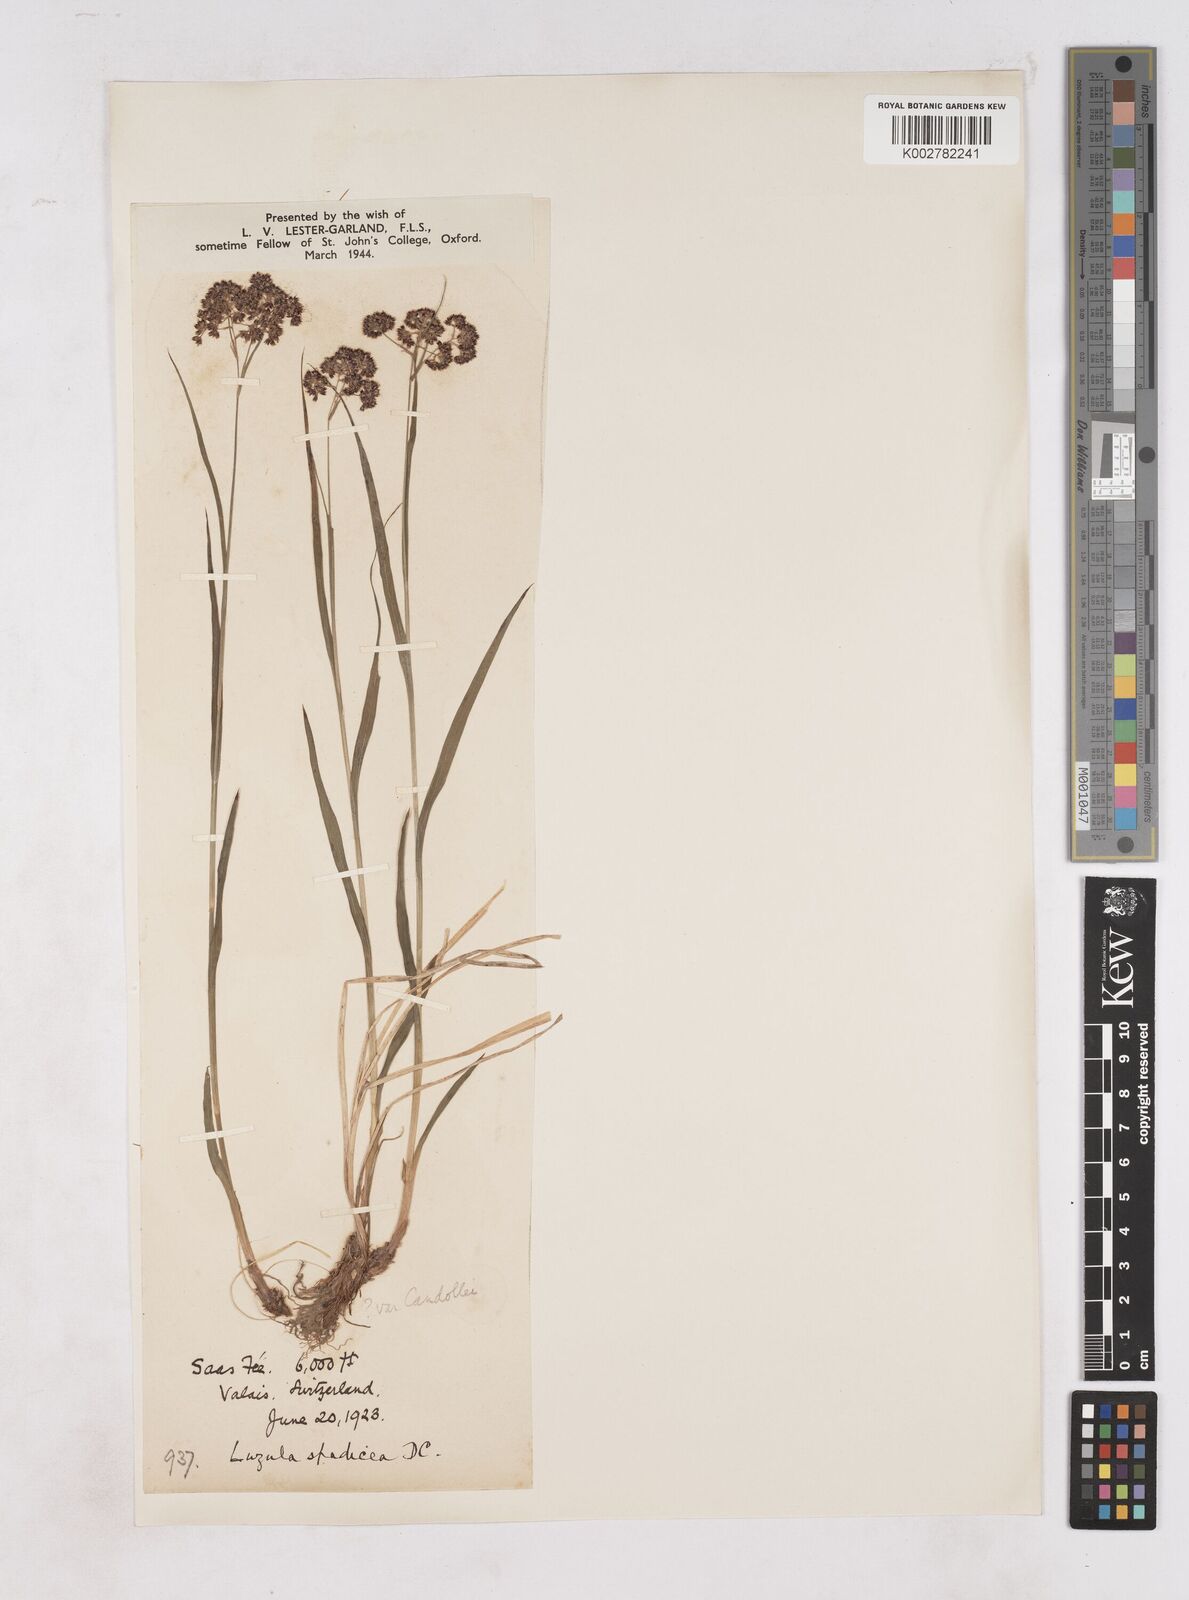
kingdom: Plantae
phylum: Tracheophyta
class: Liliopsida
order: Poales
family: Juncaceae
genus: Luzula
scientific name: Luzula alpinopilosa
